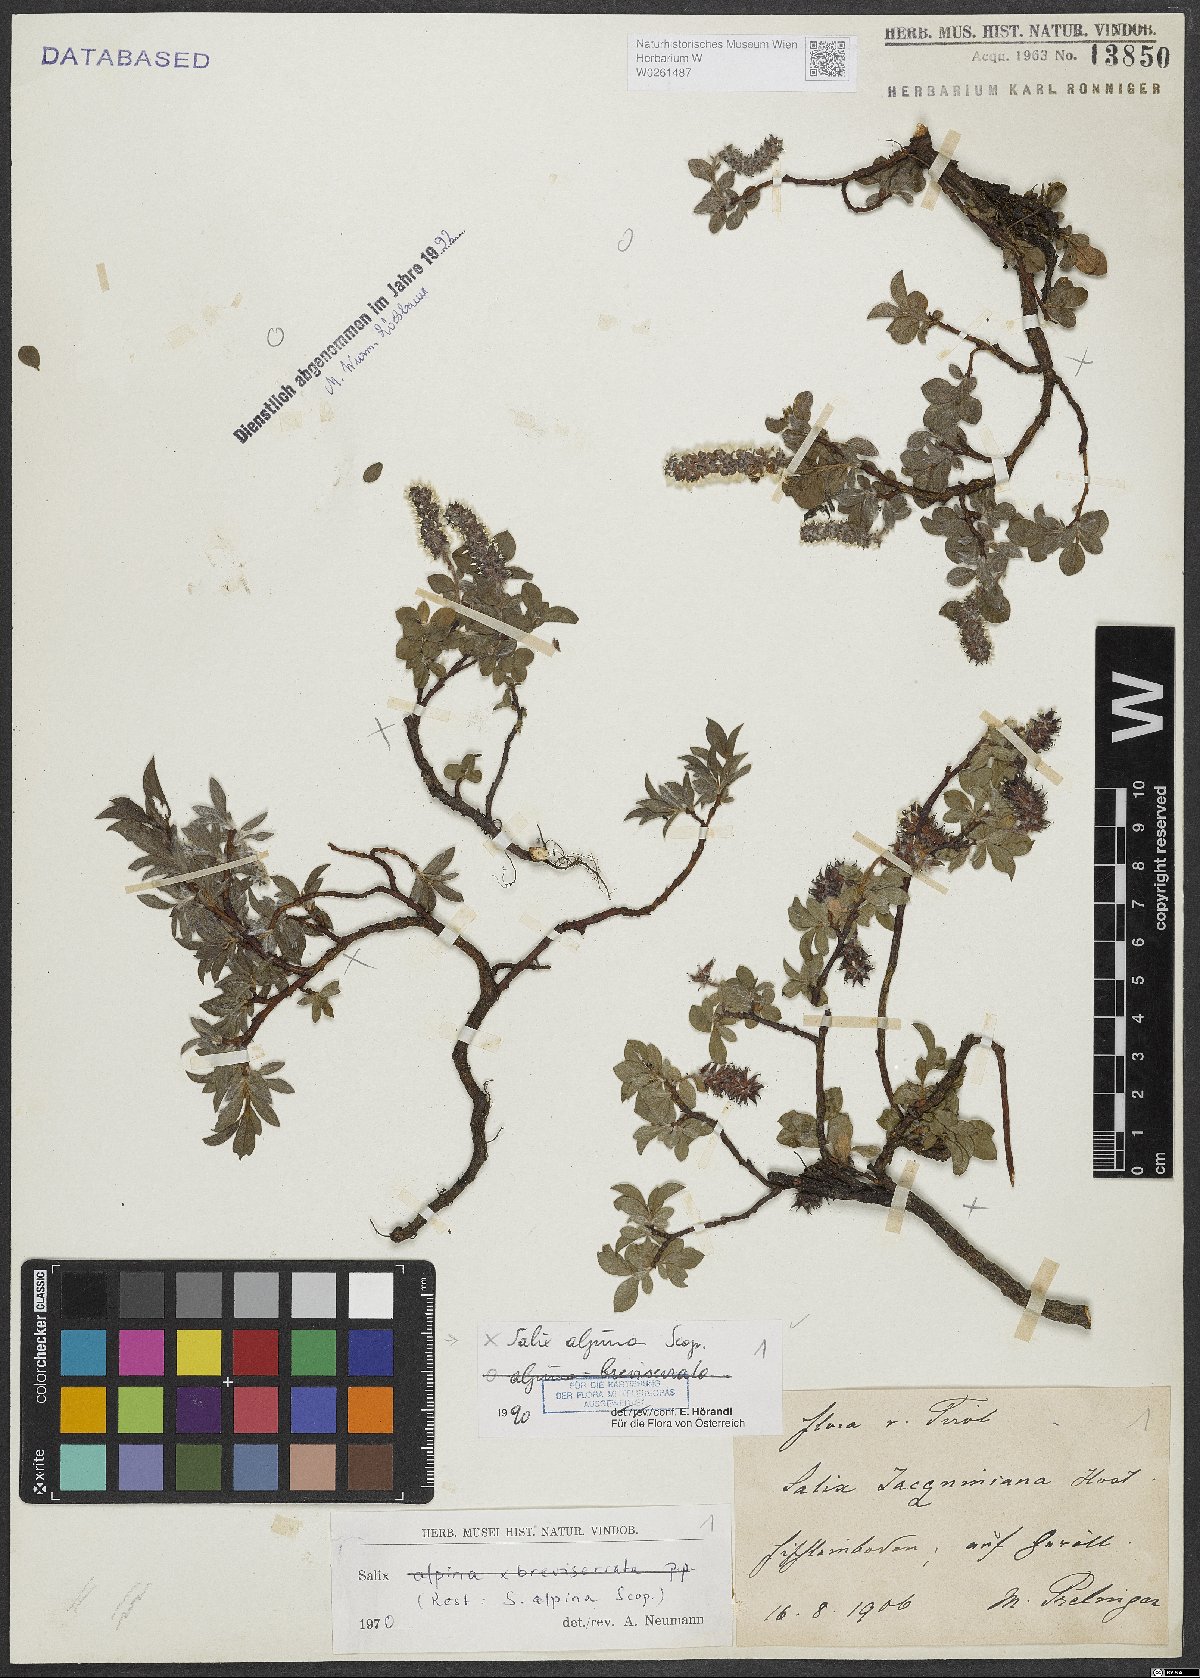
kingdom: Plantae
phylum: Tracheophyta
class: Magnoliopsida
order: Malpighiales
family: Salicaceae
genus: Salix
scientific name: Salix alpina
